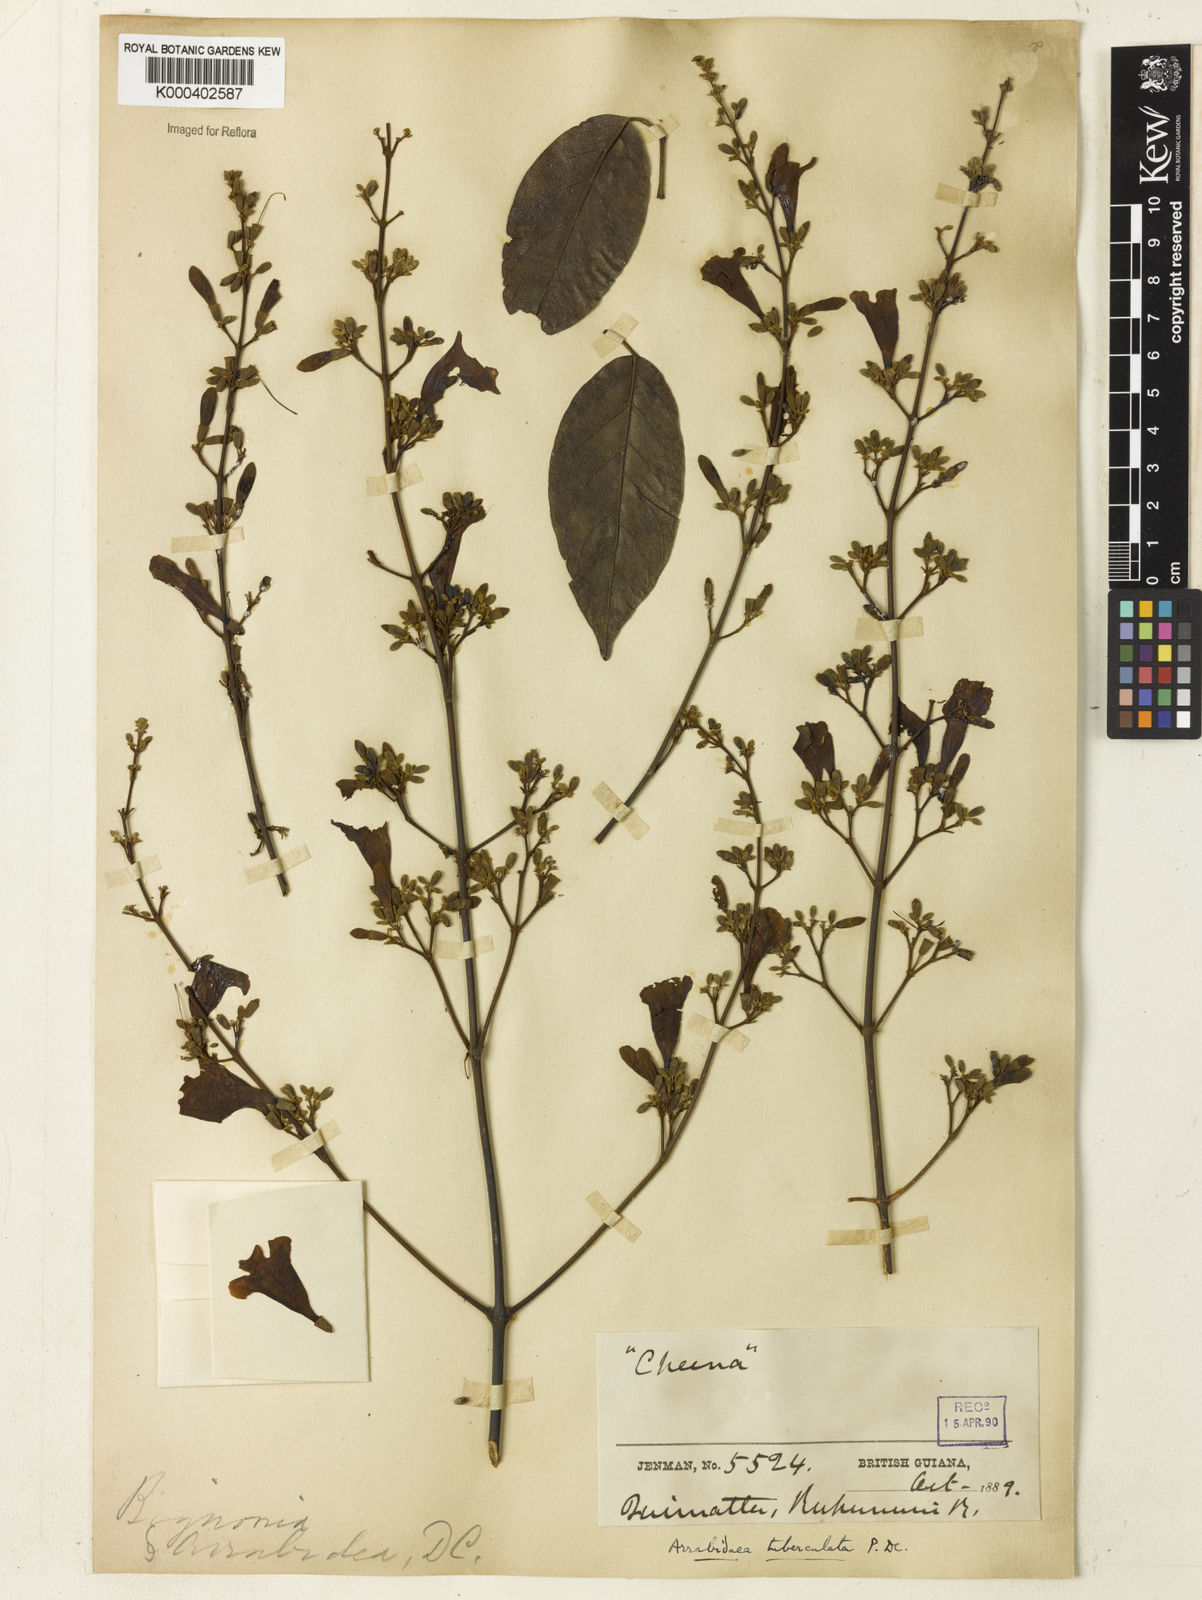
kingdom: Plantae
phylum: Tracheophyta
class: Magnoliopsida
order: Lamiales
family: Bignoniaceae
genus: Fridericia
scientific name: Fridericia tuberculata
